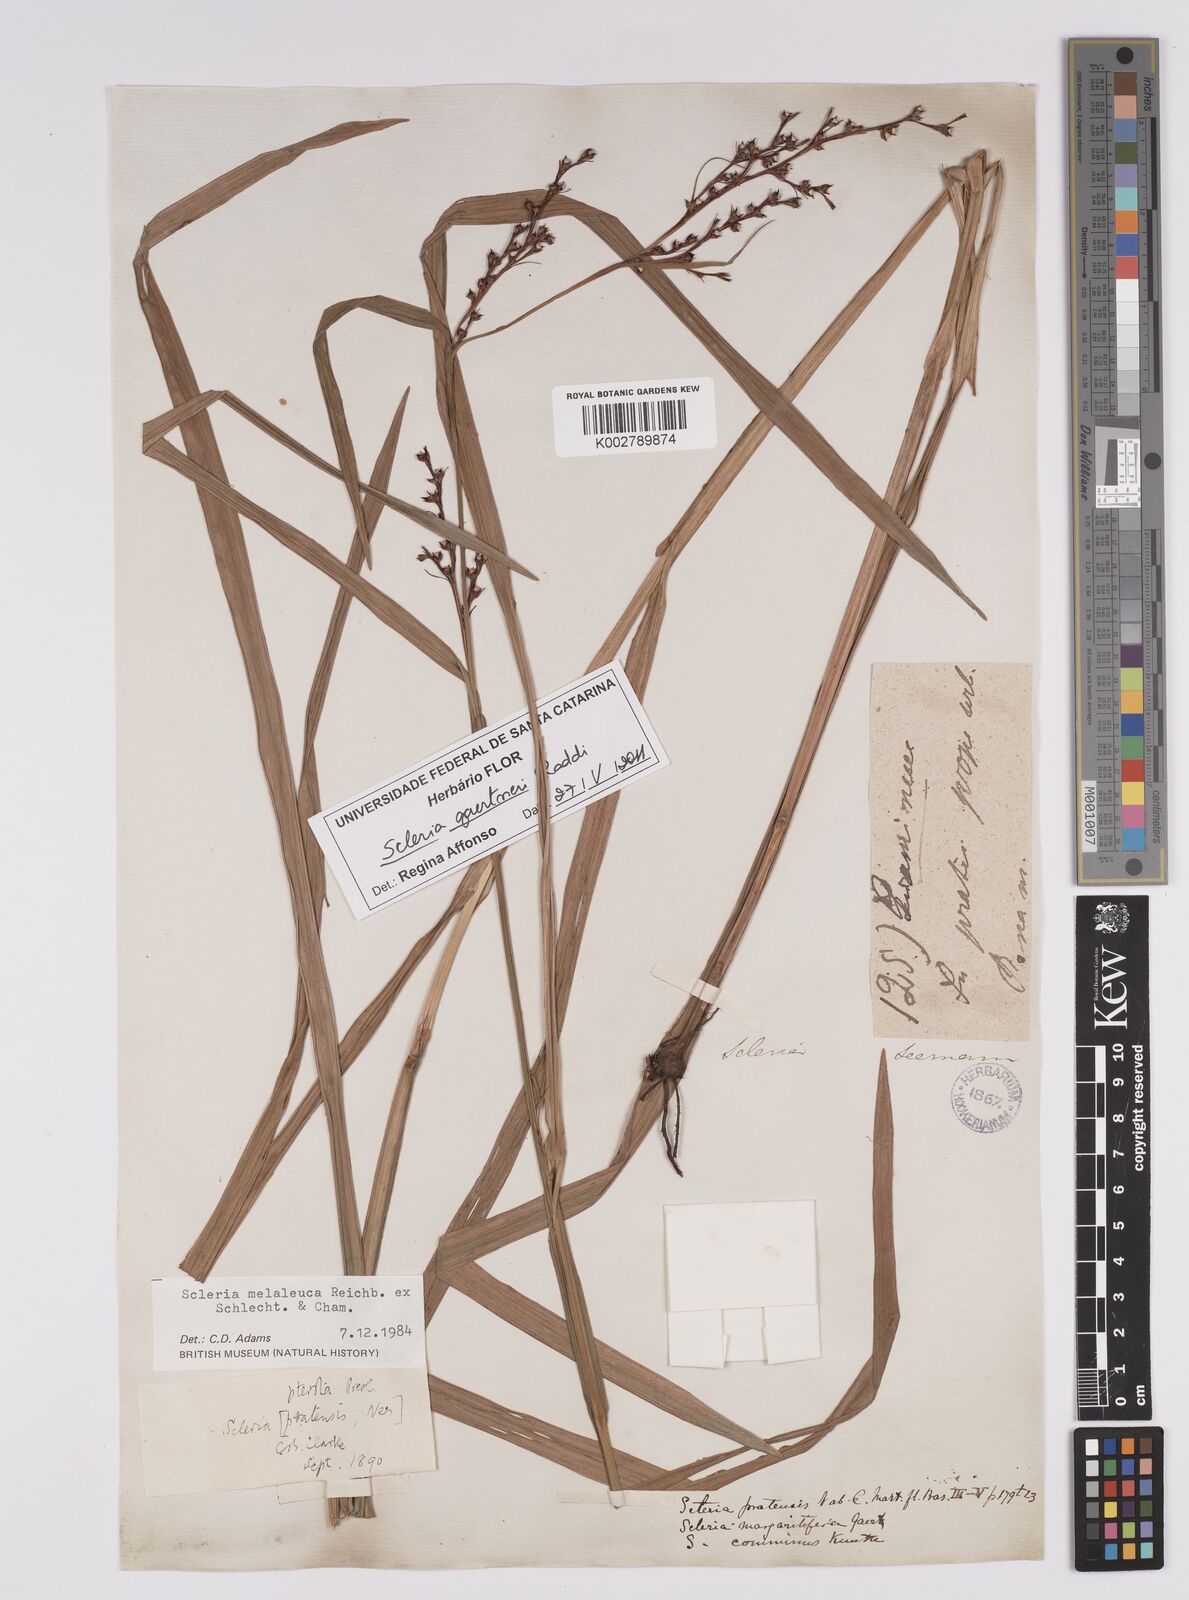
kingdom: Plantae
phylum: Tracheophyta
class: Liliopsida
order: Poales
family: Cyperaceae
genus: Scleria
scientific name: Scleria gaertneri
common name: Cortadera blanca
